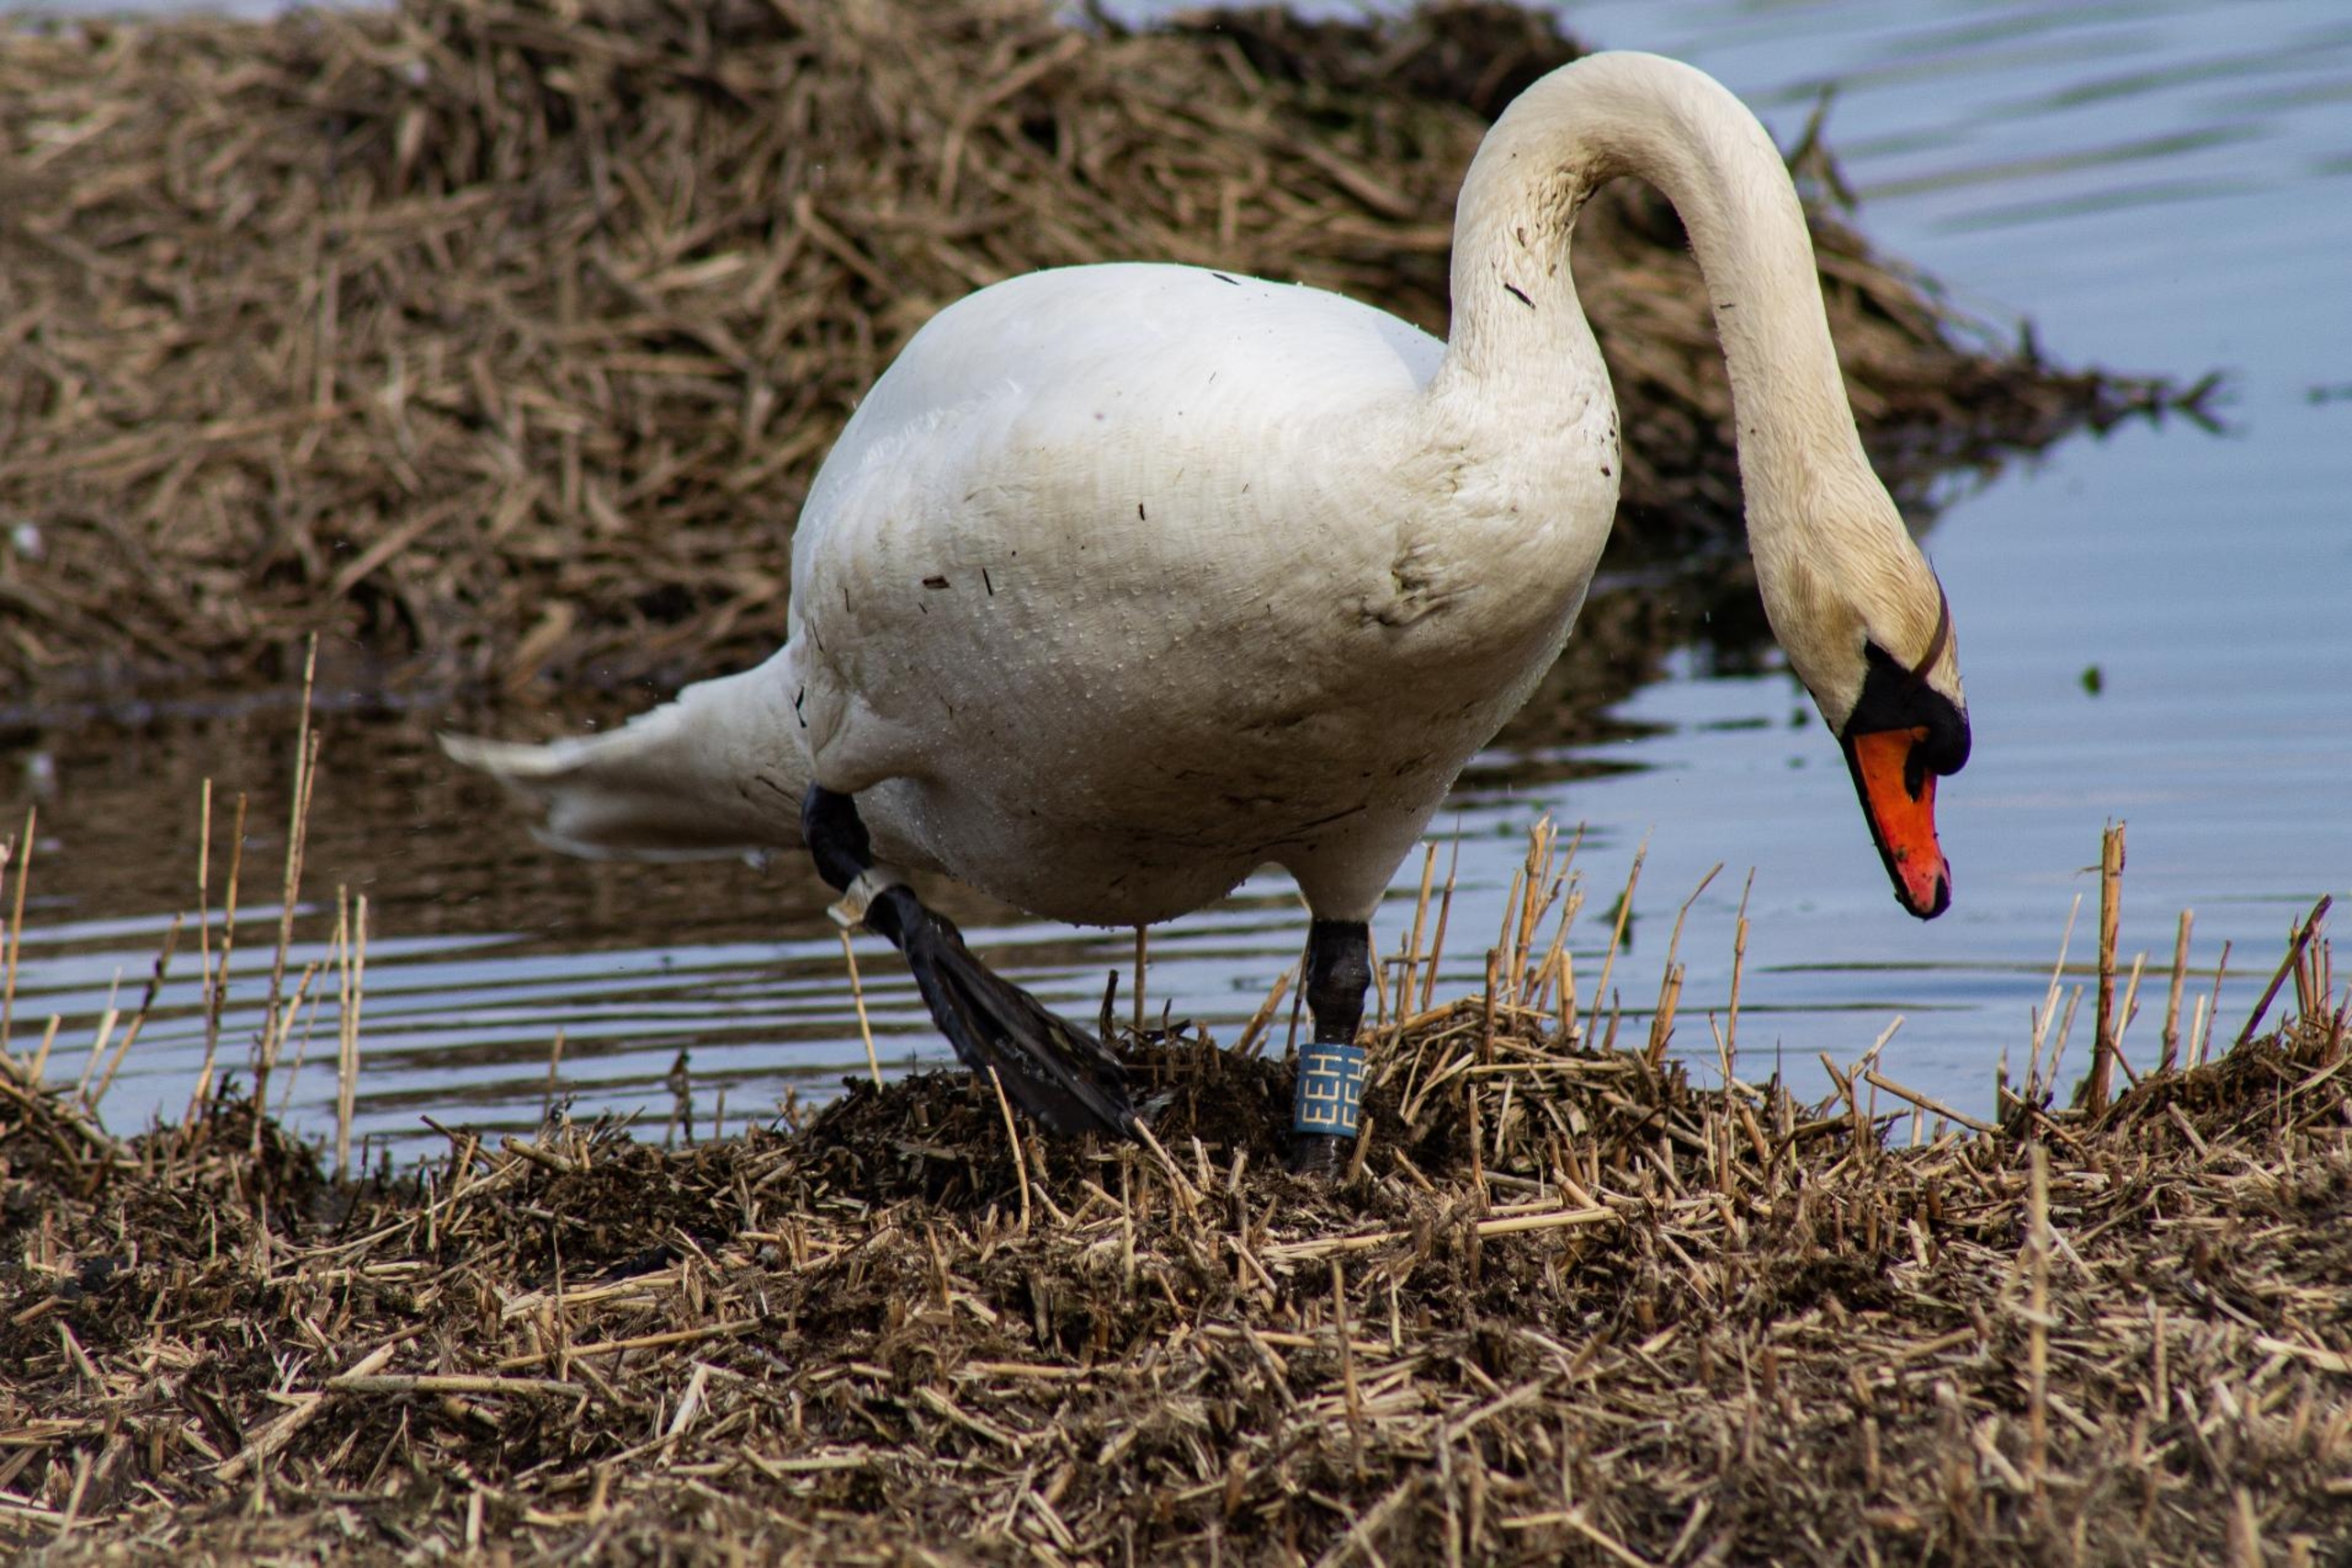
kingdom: Animalia
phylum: Chordata
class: Aves
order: Anseriformes
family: Anatidae
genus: Cygnus
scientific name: Cygnus olor
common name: Knopsvane
